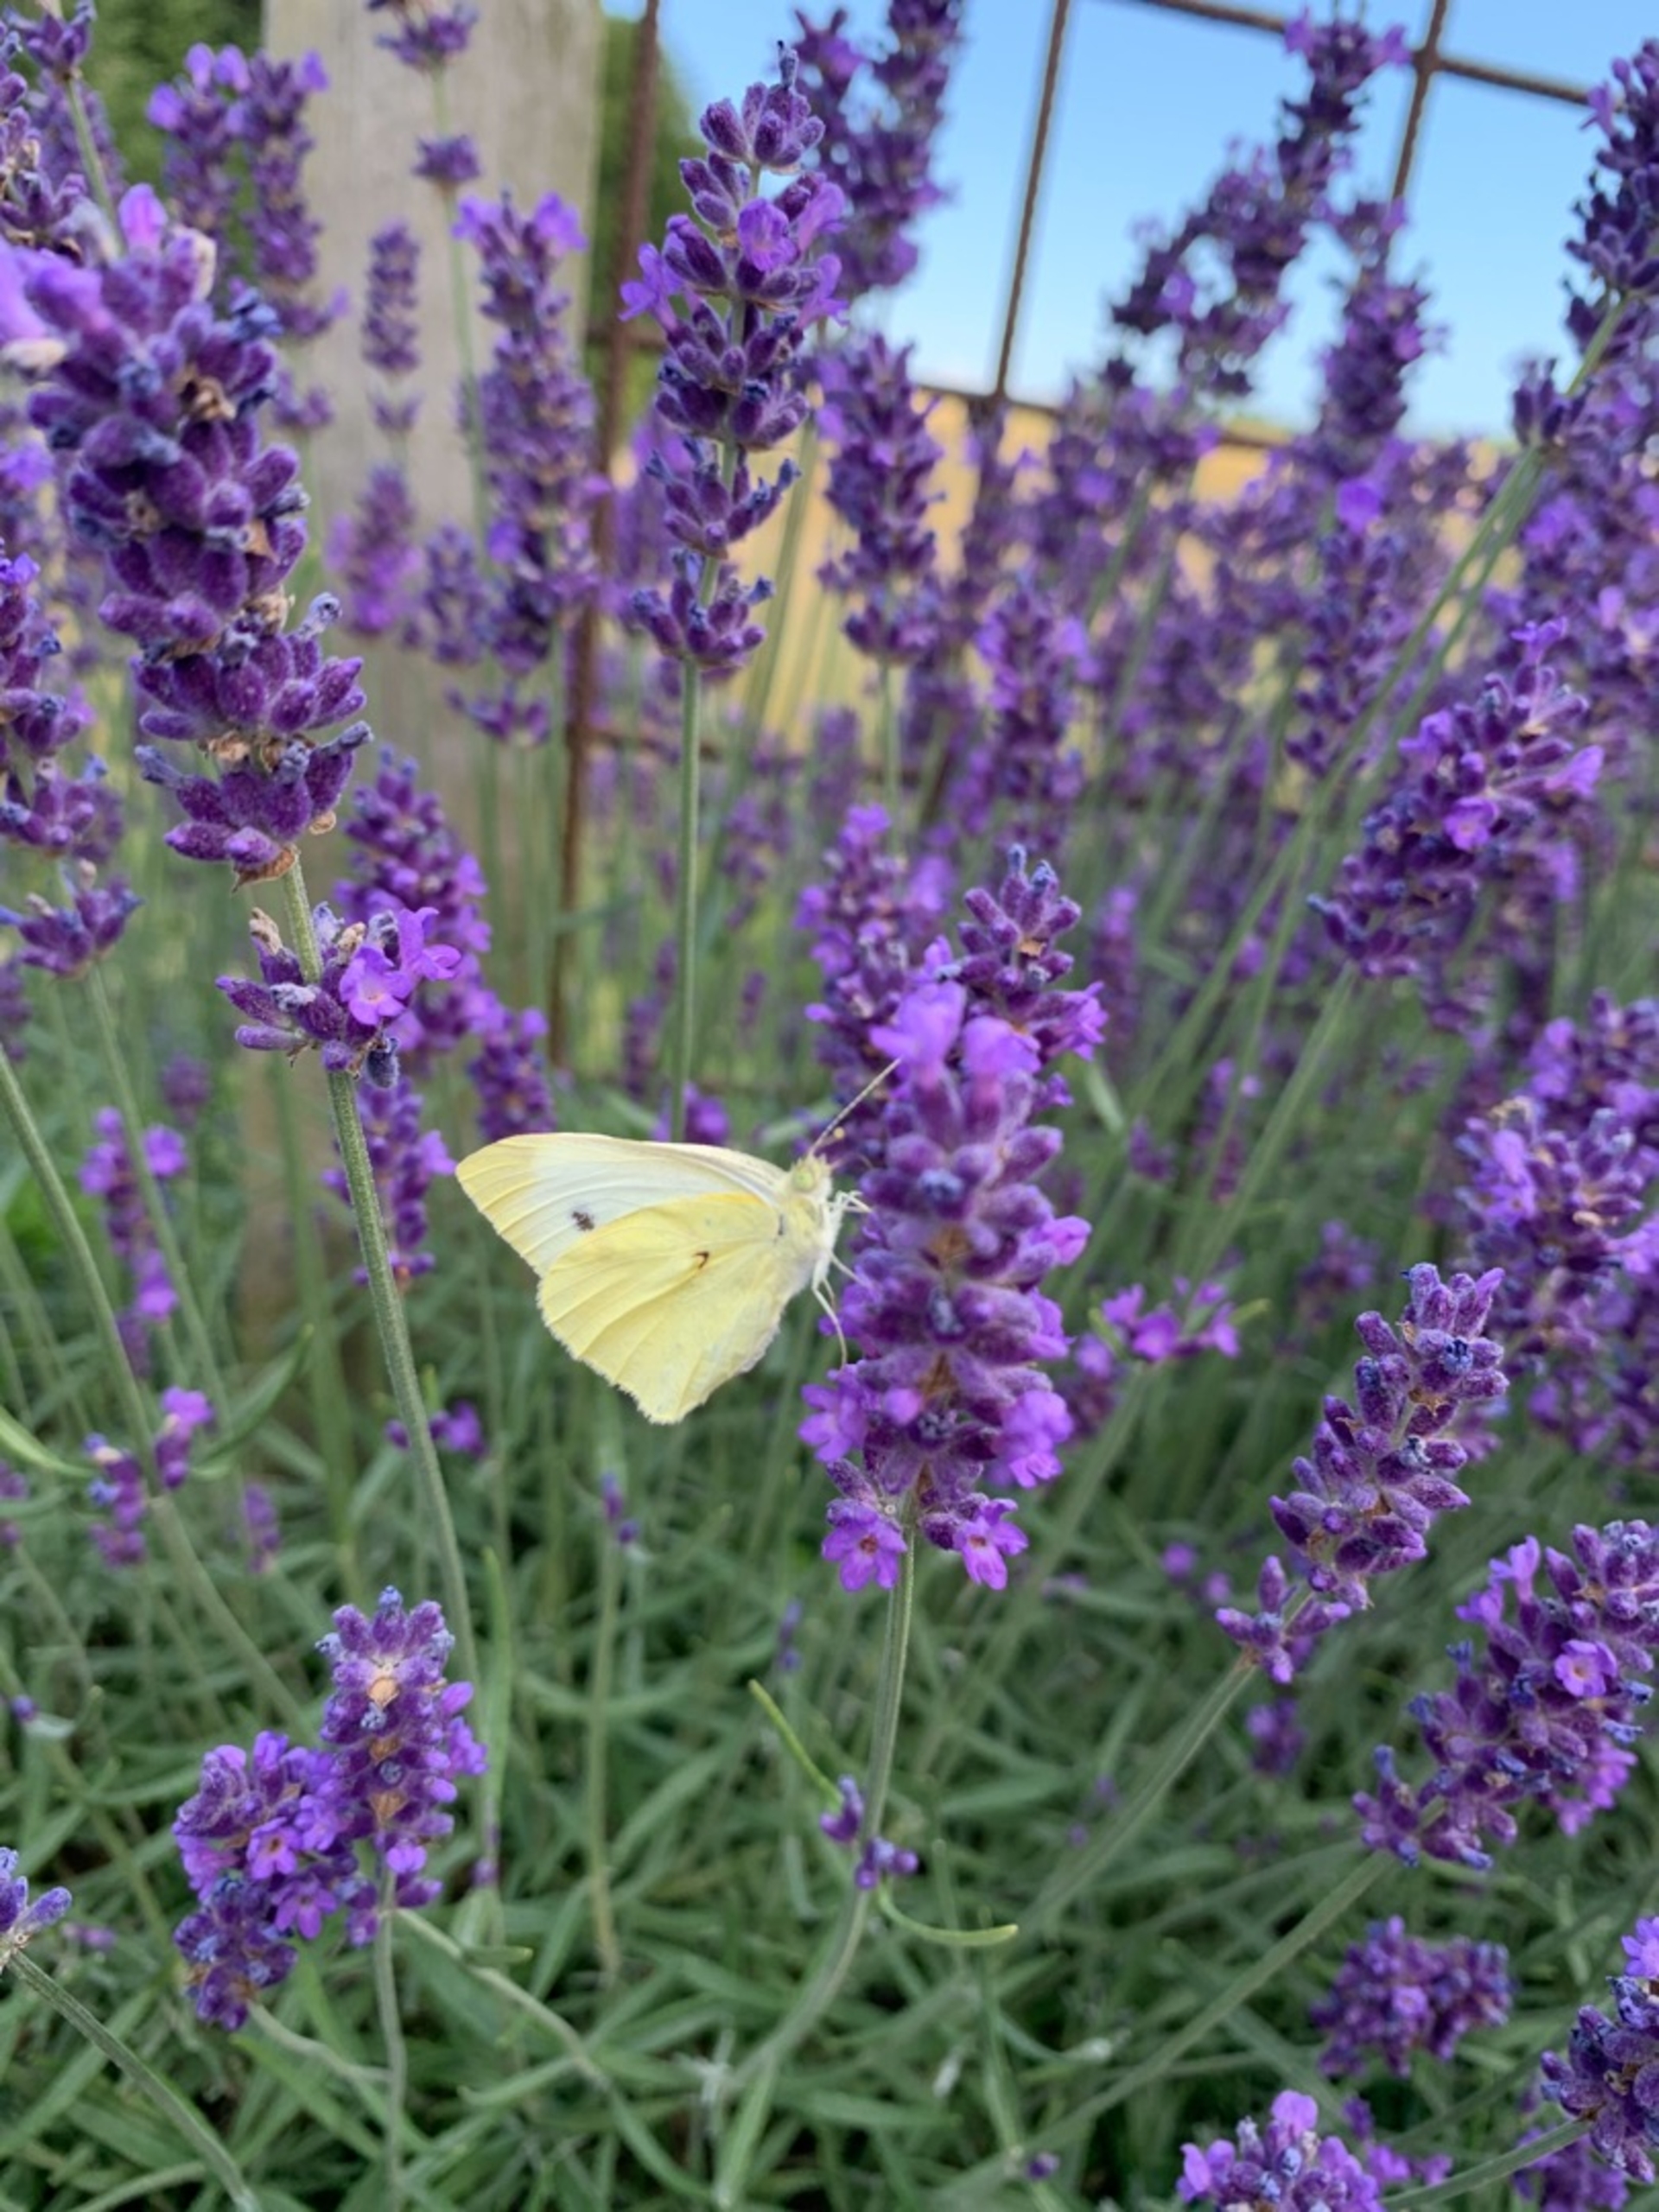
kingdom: Animalia
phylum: Arthropoda
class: Insecta
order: Lepidoptera
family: Pieridae
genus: Pieris
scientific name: Pieris rapae
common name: Lille kålsommerfugl
